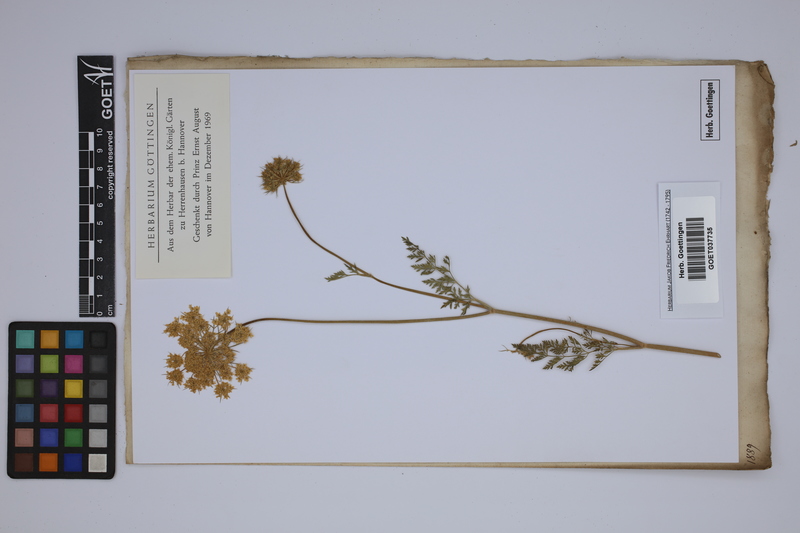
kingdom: Plantae
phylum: Tracheophyta
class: Magnoliopsida
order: Apiales
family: Apiaceae
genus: Daucus
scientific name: Daucus carota
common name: Wild carrot
